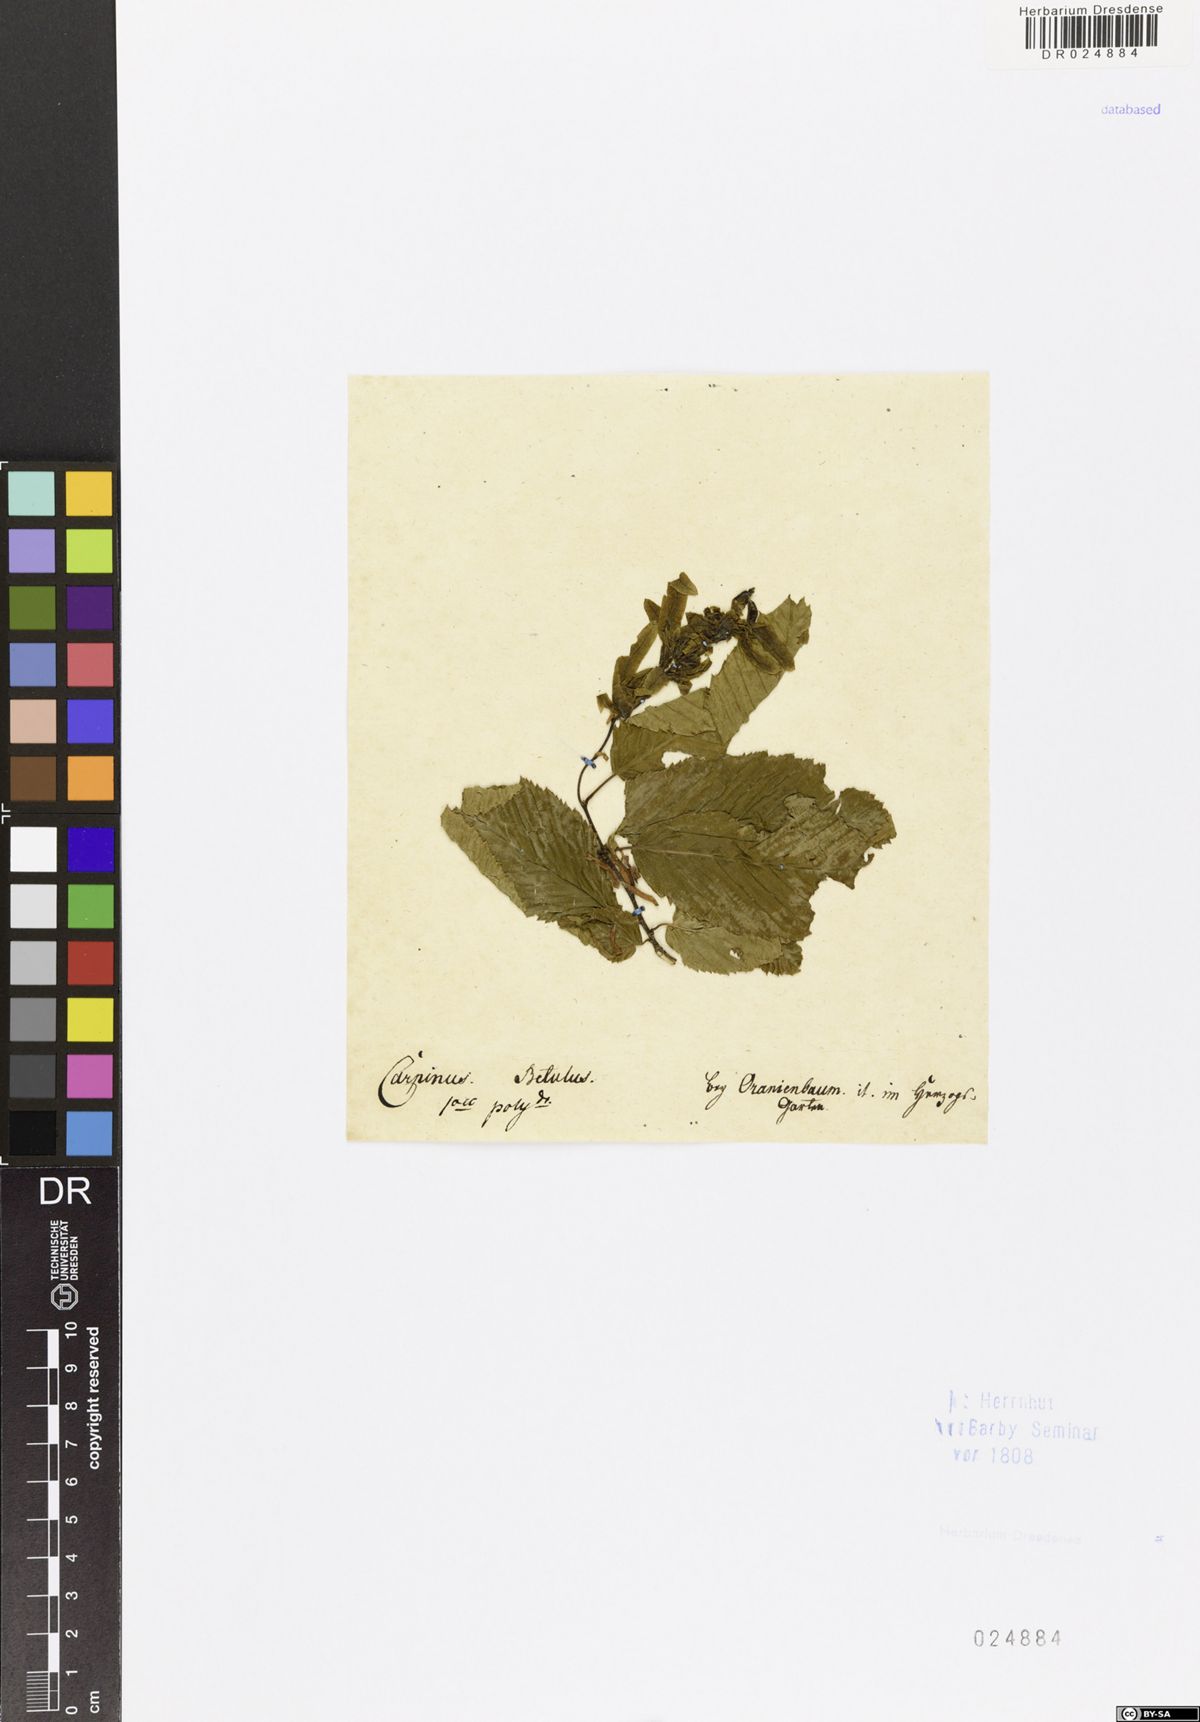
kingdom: Plantae
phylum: Tracheophyta
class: Magnoliopsida
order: Fagales
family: Betulaceae
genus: Carpinus
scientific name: Carpinus betulus
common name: Hornbeam
